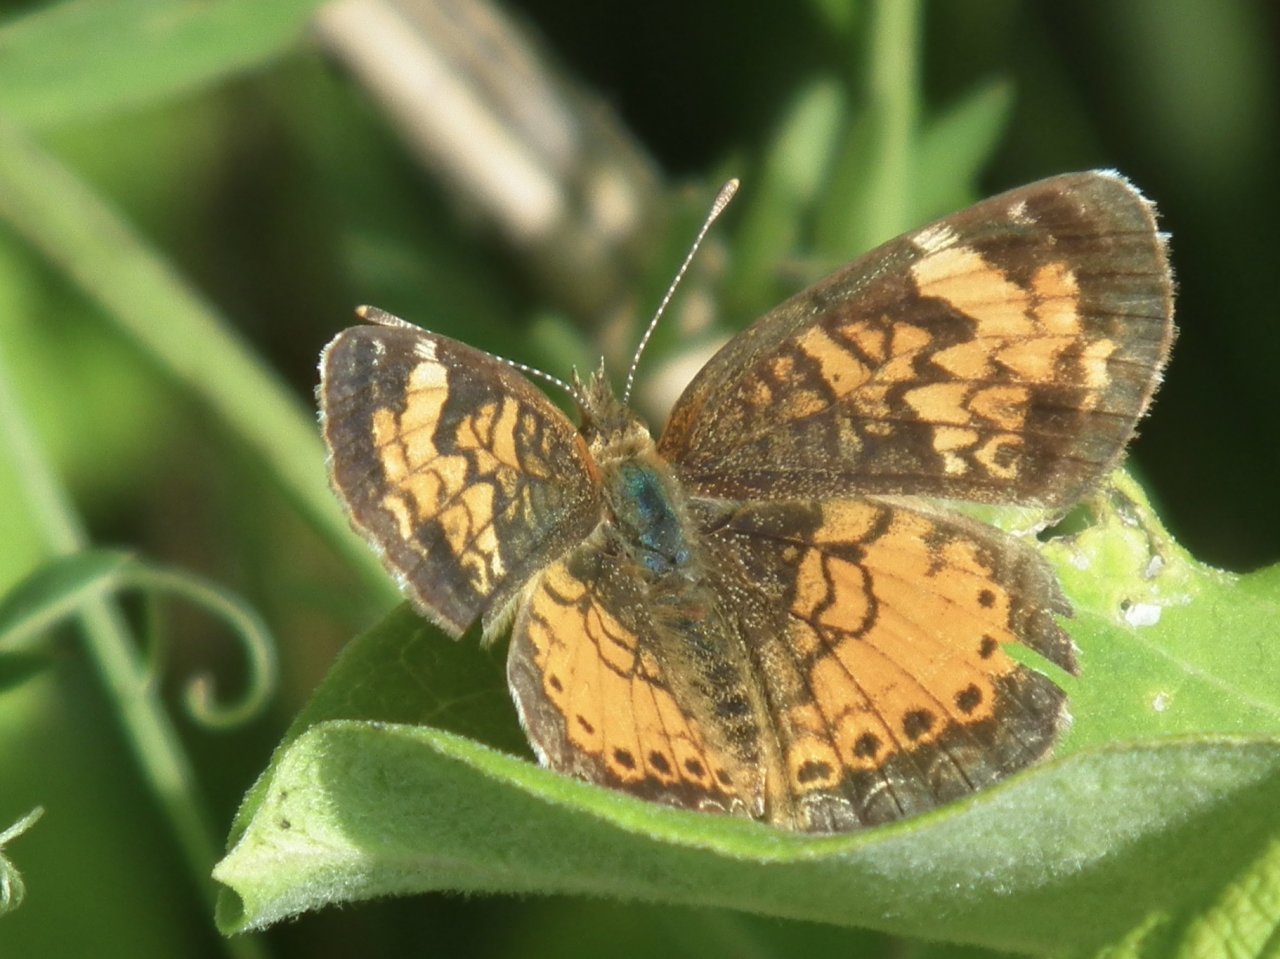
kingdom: Animalia
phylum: Arthropoda
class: Insecta
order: Lepidoptera
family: Nymphalidae
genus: Phyciodes
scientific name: Phyciodes tharos
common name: Northern Crescent
